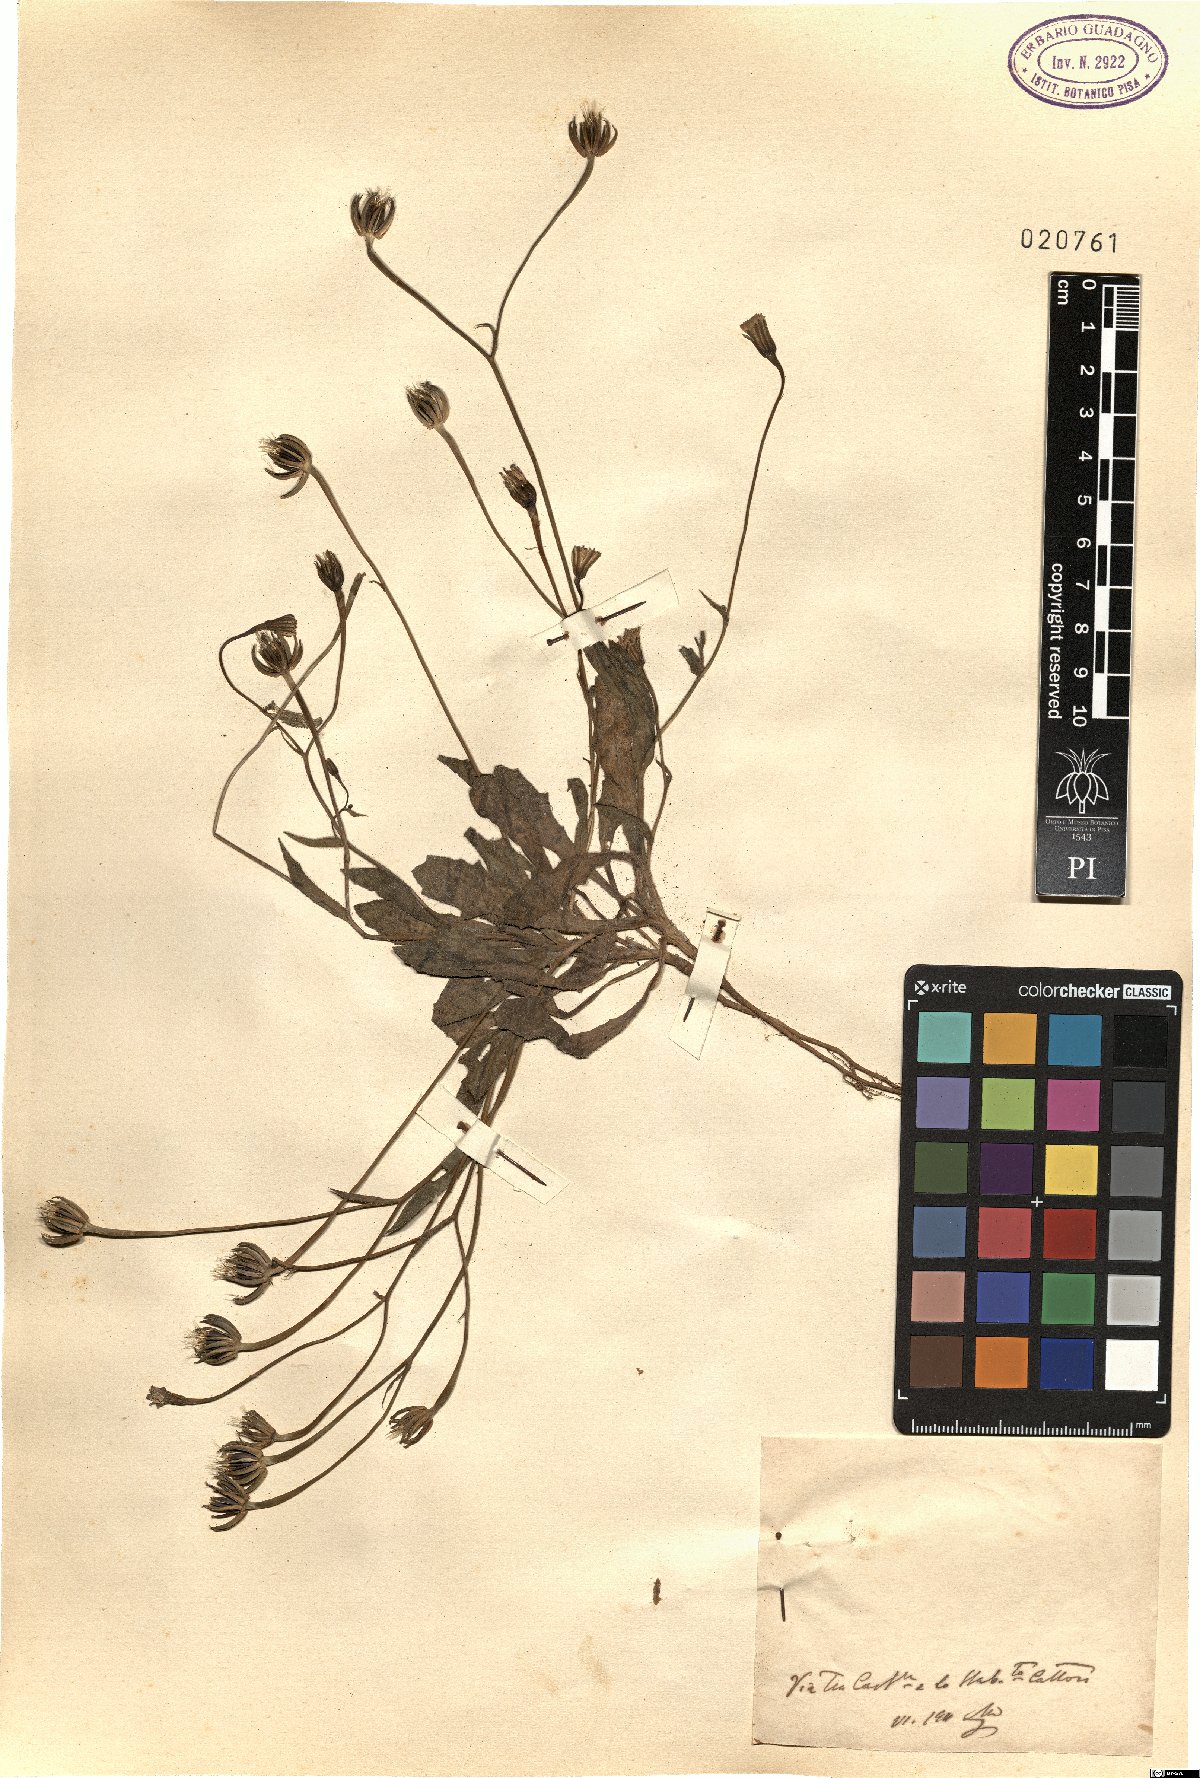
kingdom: Plantae
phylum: Tracheophyta
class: Magnoliopsida
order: Asterales
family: Asteraceae
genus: Rhagadiolus
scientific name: Rhagadiolus
